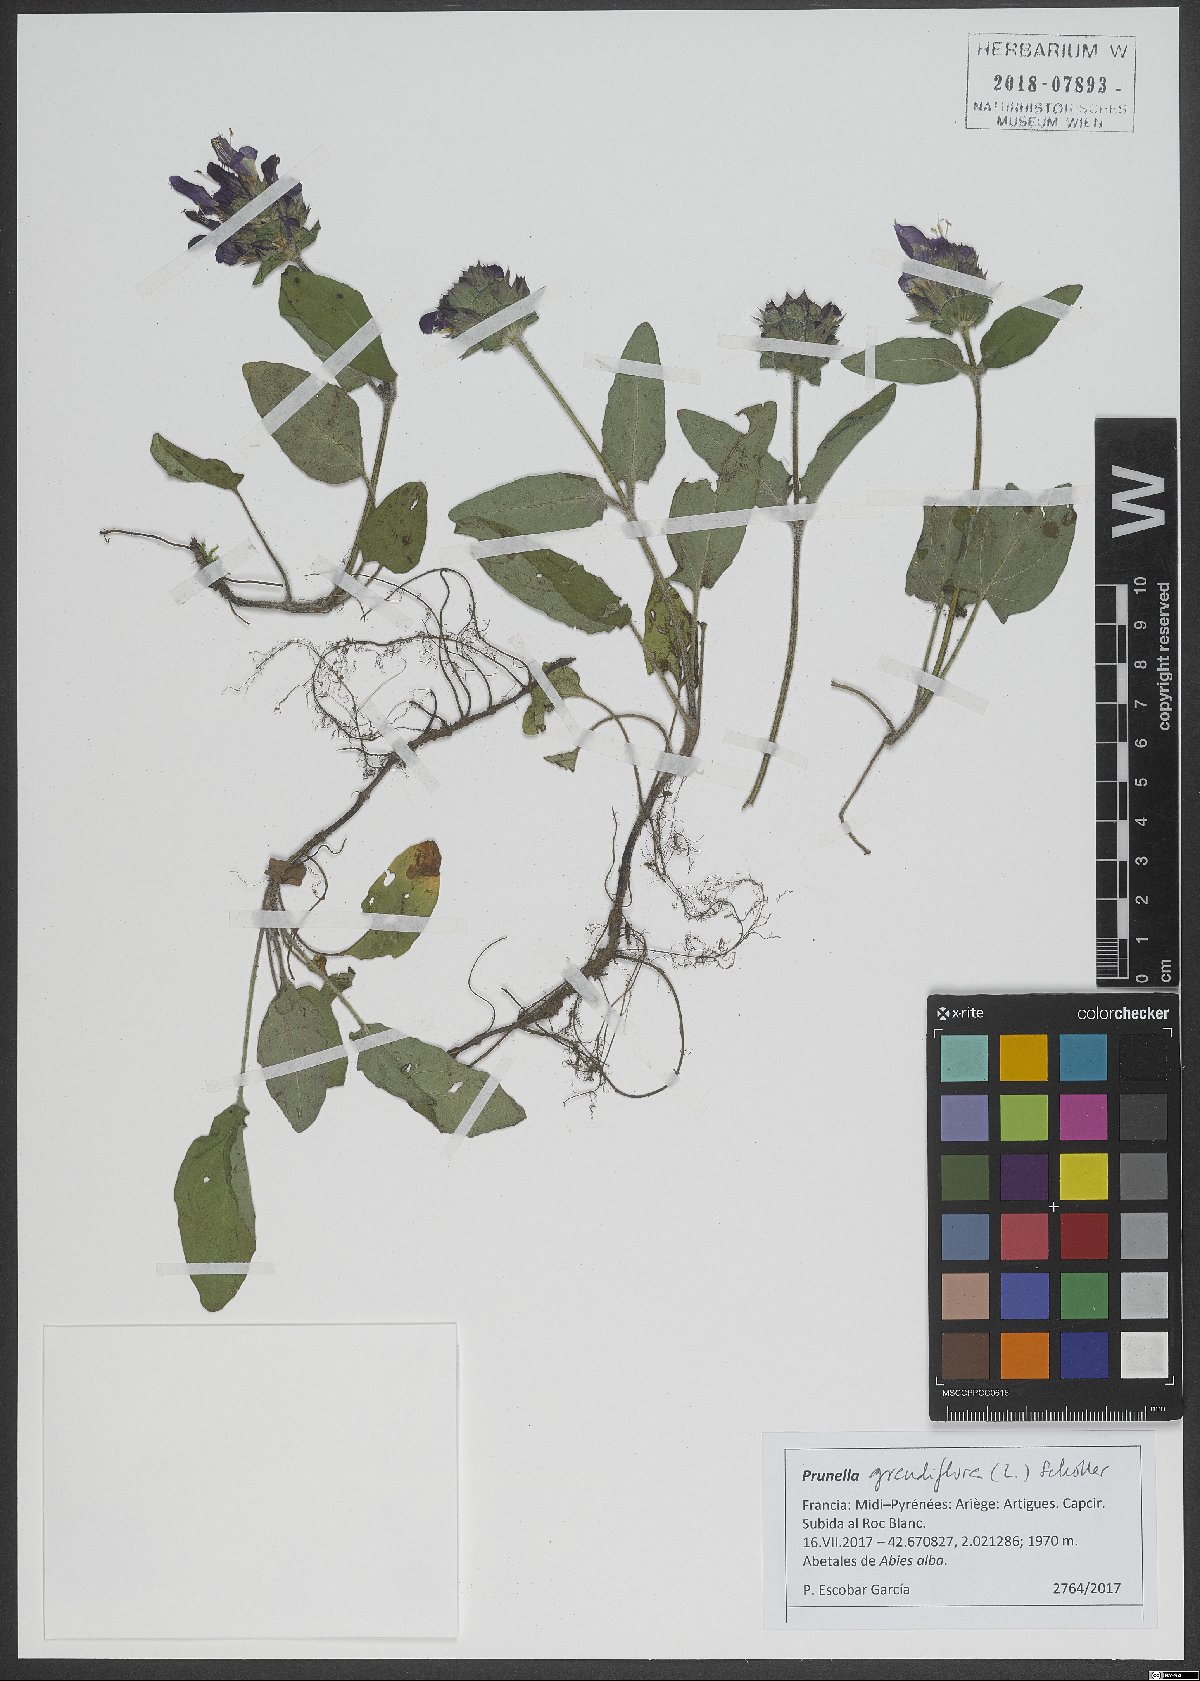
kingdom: Plantae
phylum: Tracheophyta
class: Magnoliopsida
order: Lamiales
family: Lamiaceae
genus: Prunella
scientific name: Prunella grandiflora
